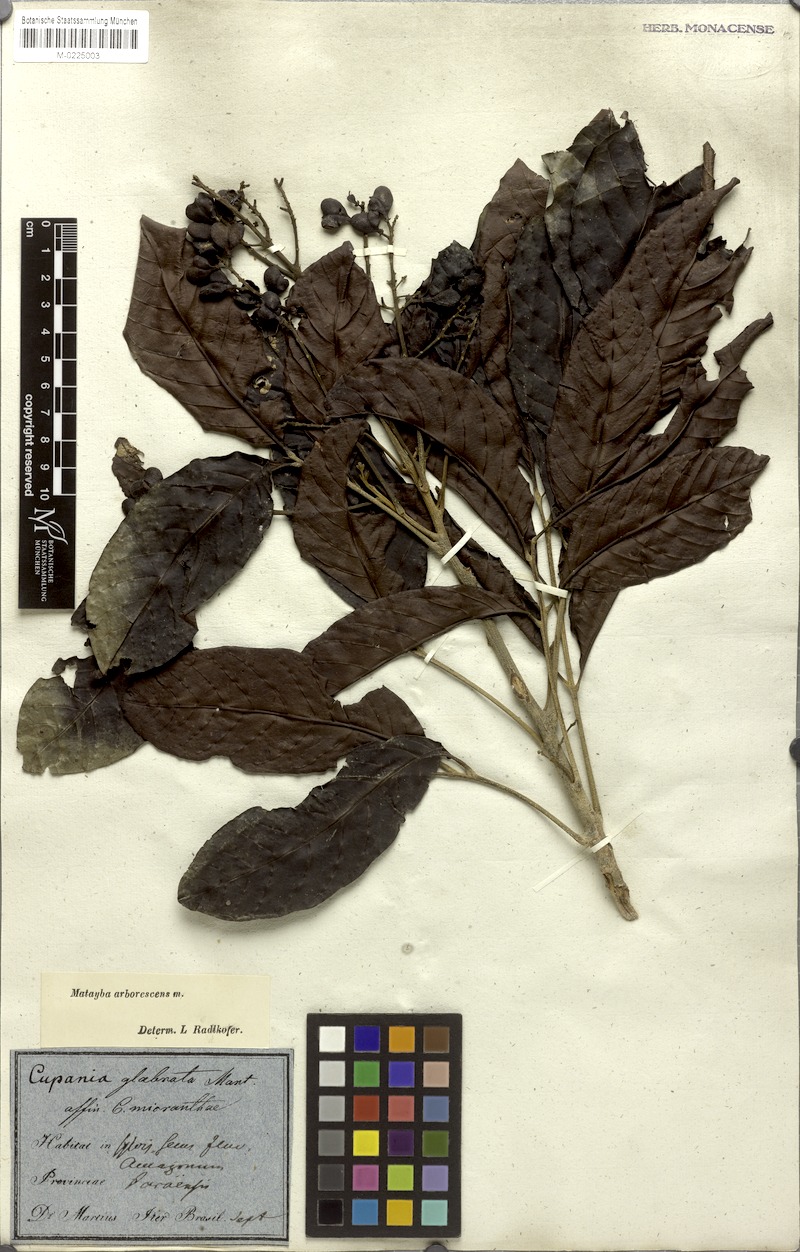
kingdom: Plantae
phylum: Tracheophyta
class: Magnoliopsida
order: Sapindales
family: Sapindaceae
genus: Matayba
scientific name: Matayba arborescens
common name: Arborescent matayba
